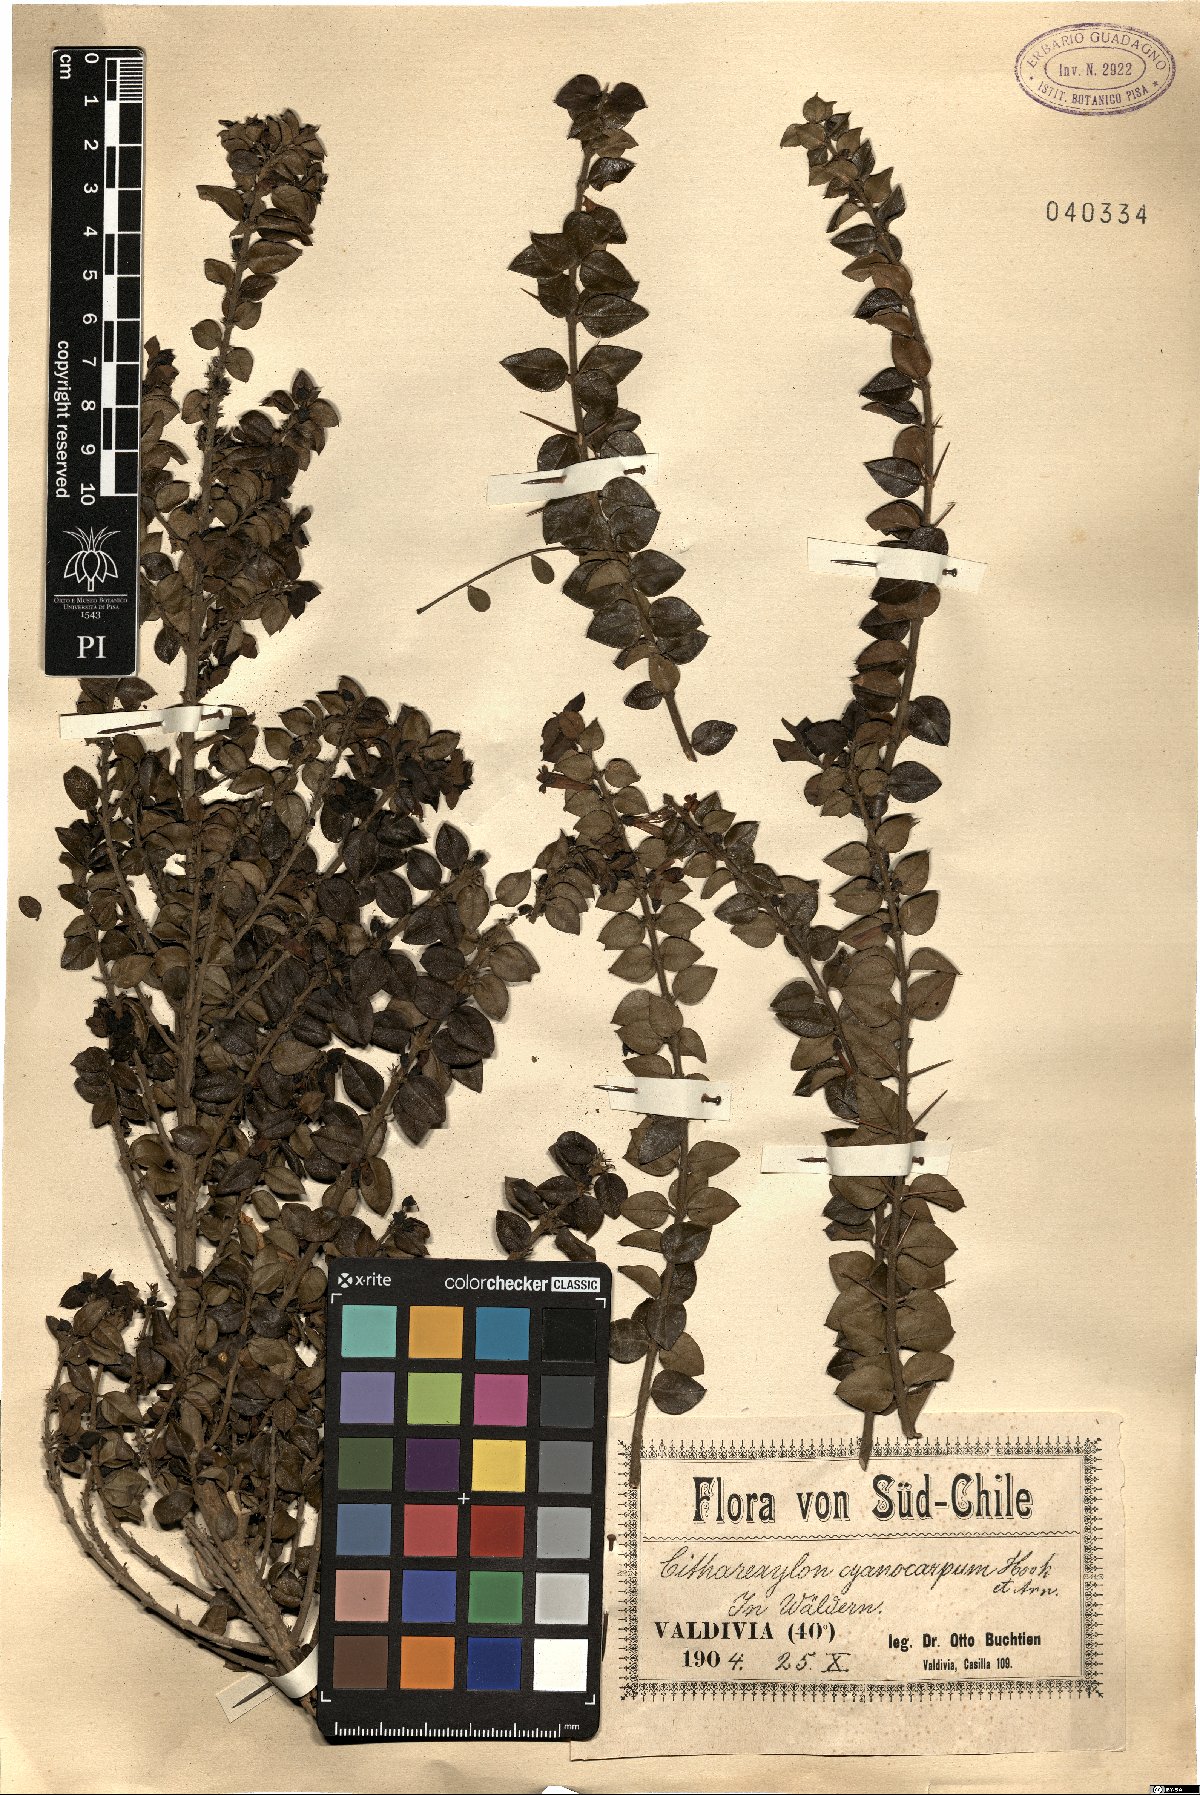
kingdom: Plantae
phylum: Tracheophyta
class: Magnoliopsida
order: Lamiales
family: Verbenaceae
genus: Rhaphithamnus
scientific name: Rhaphithamnus spinosus
